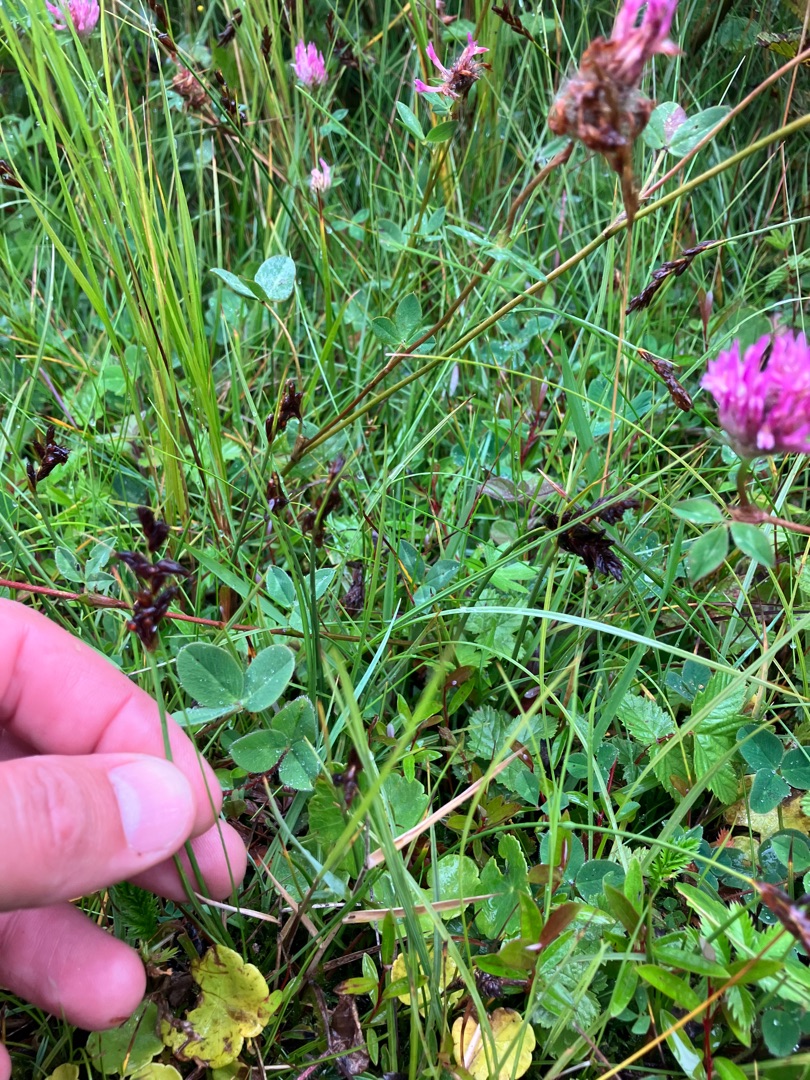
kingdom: Plantae
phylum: Tracheophyta
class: Liliopsida
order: Poales
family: Cyperaceae
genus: Blysmus
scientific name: Blysmus compressus
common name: Fladtrykt kogleaks
